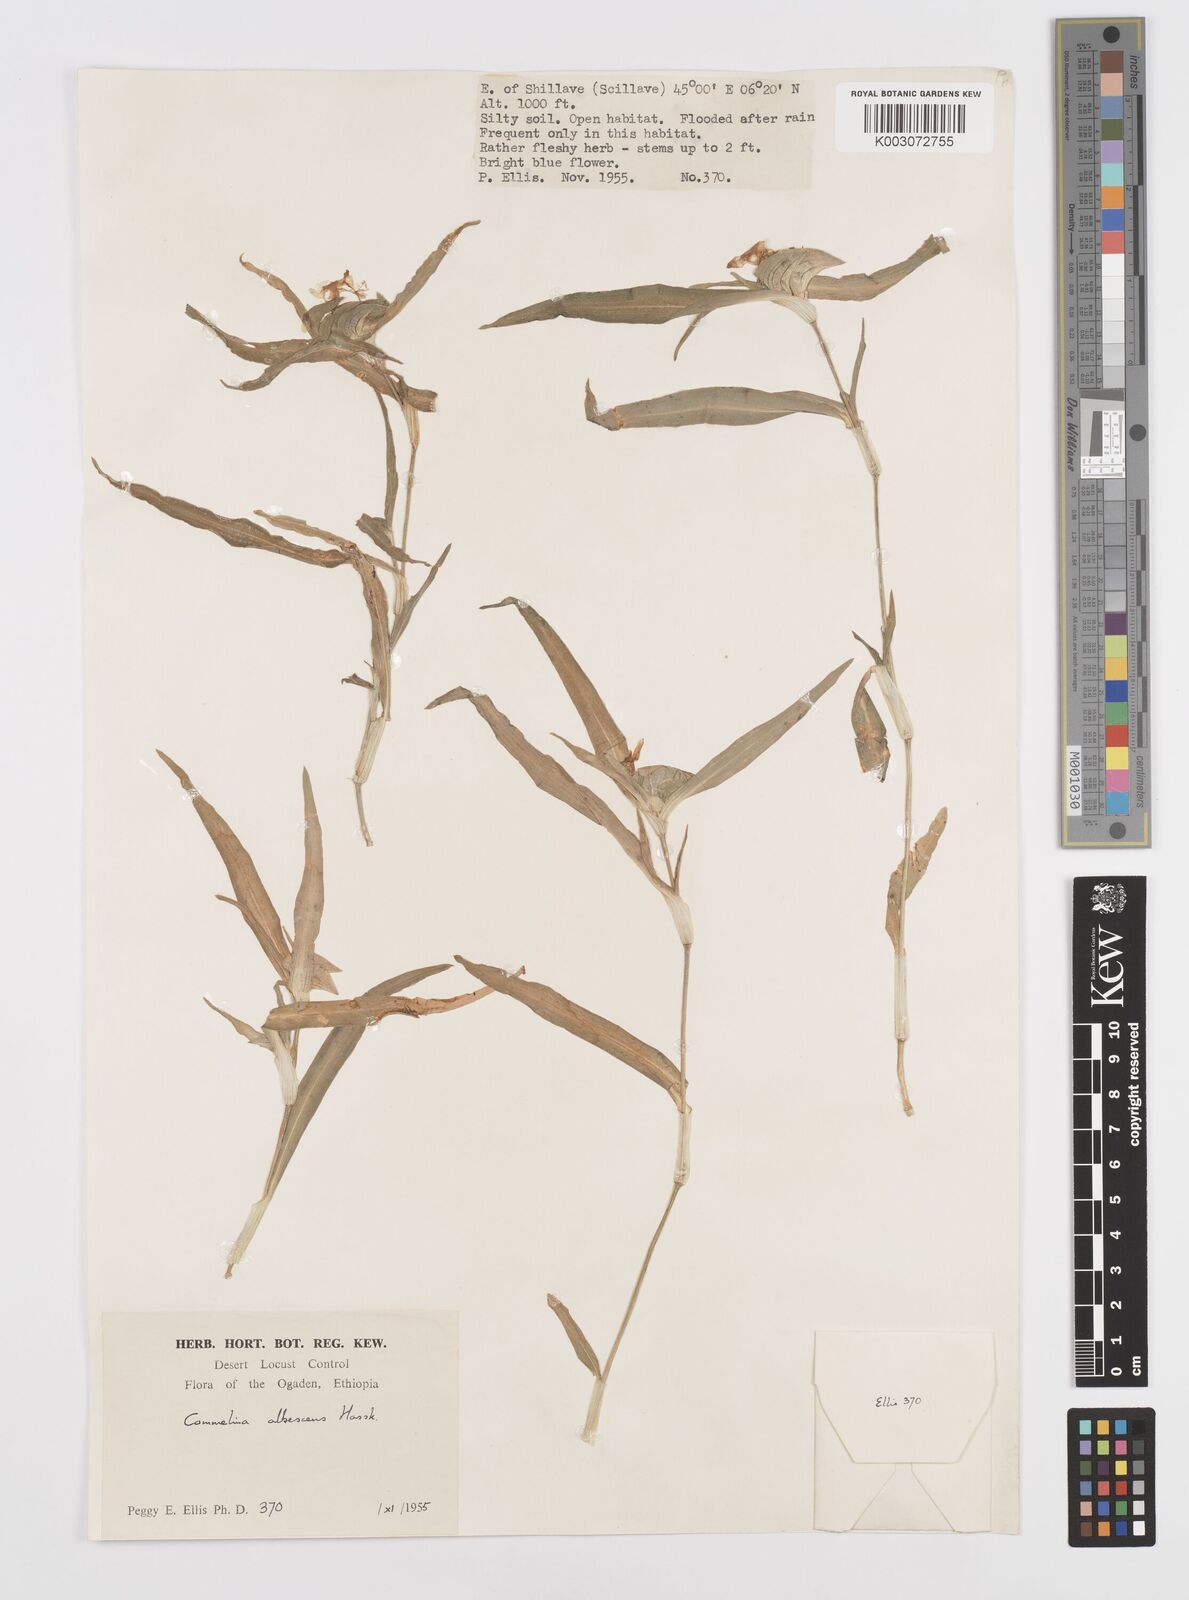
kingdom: Plantae
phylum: Tracheophyta
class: Liliopsida
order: Commelinales
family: Commelinaceae
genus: Commelina
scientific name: Commelina albescens
